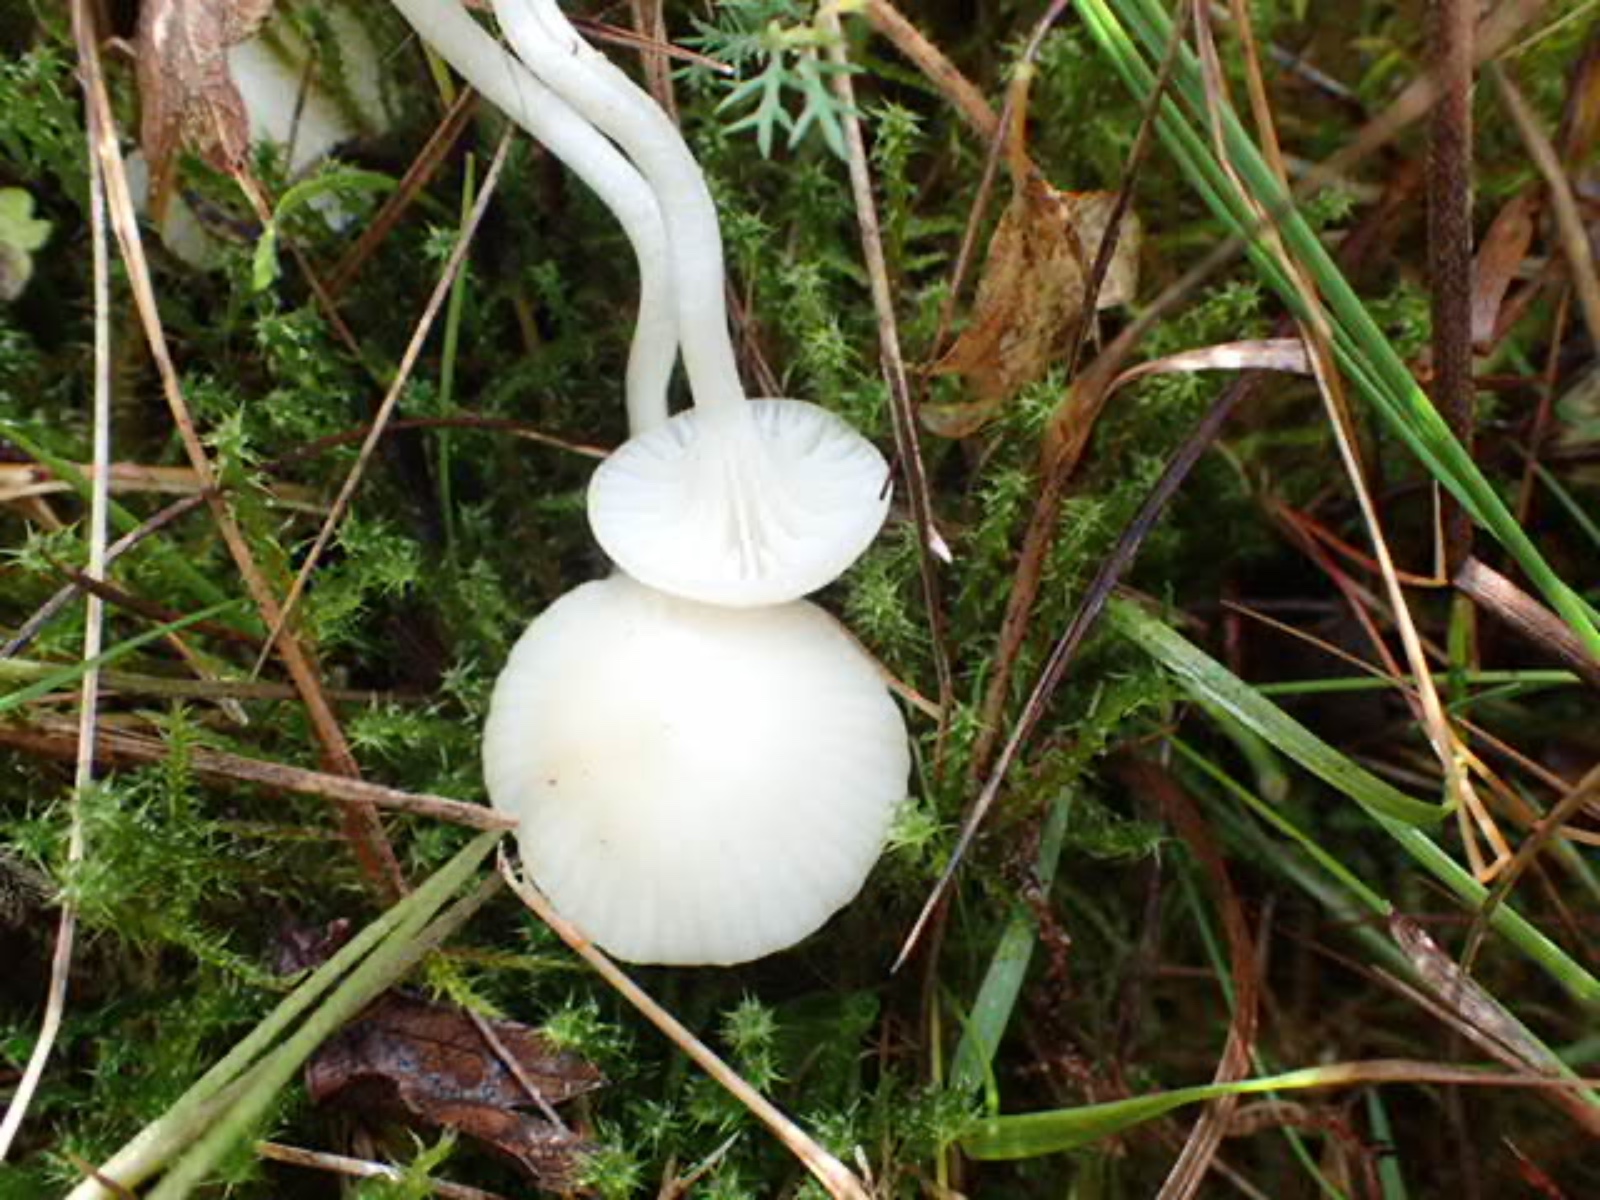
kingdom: Fungi
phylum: Basidiomycota
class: Agaricomycetes
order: Agaricales
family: Hygrophoraceae
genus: Cuphophyllus
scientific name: Cuphophyllus virgineus
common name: snehvid vokshat
